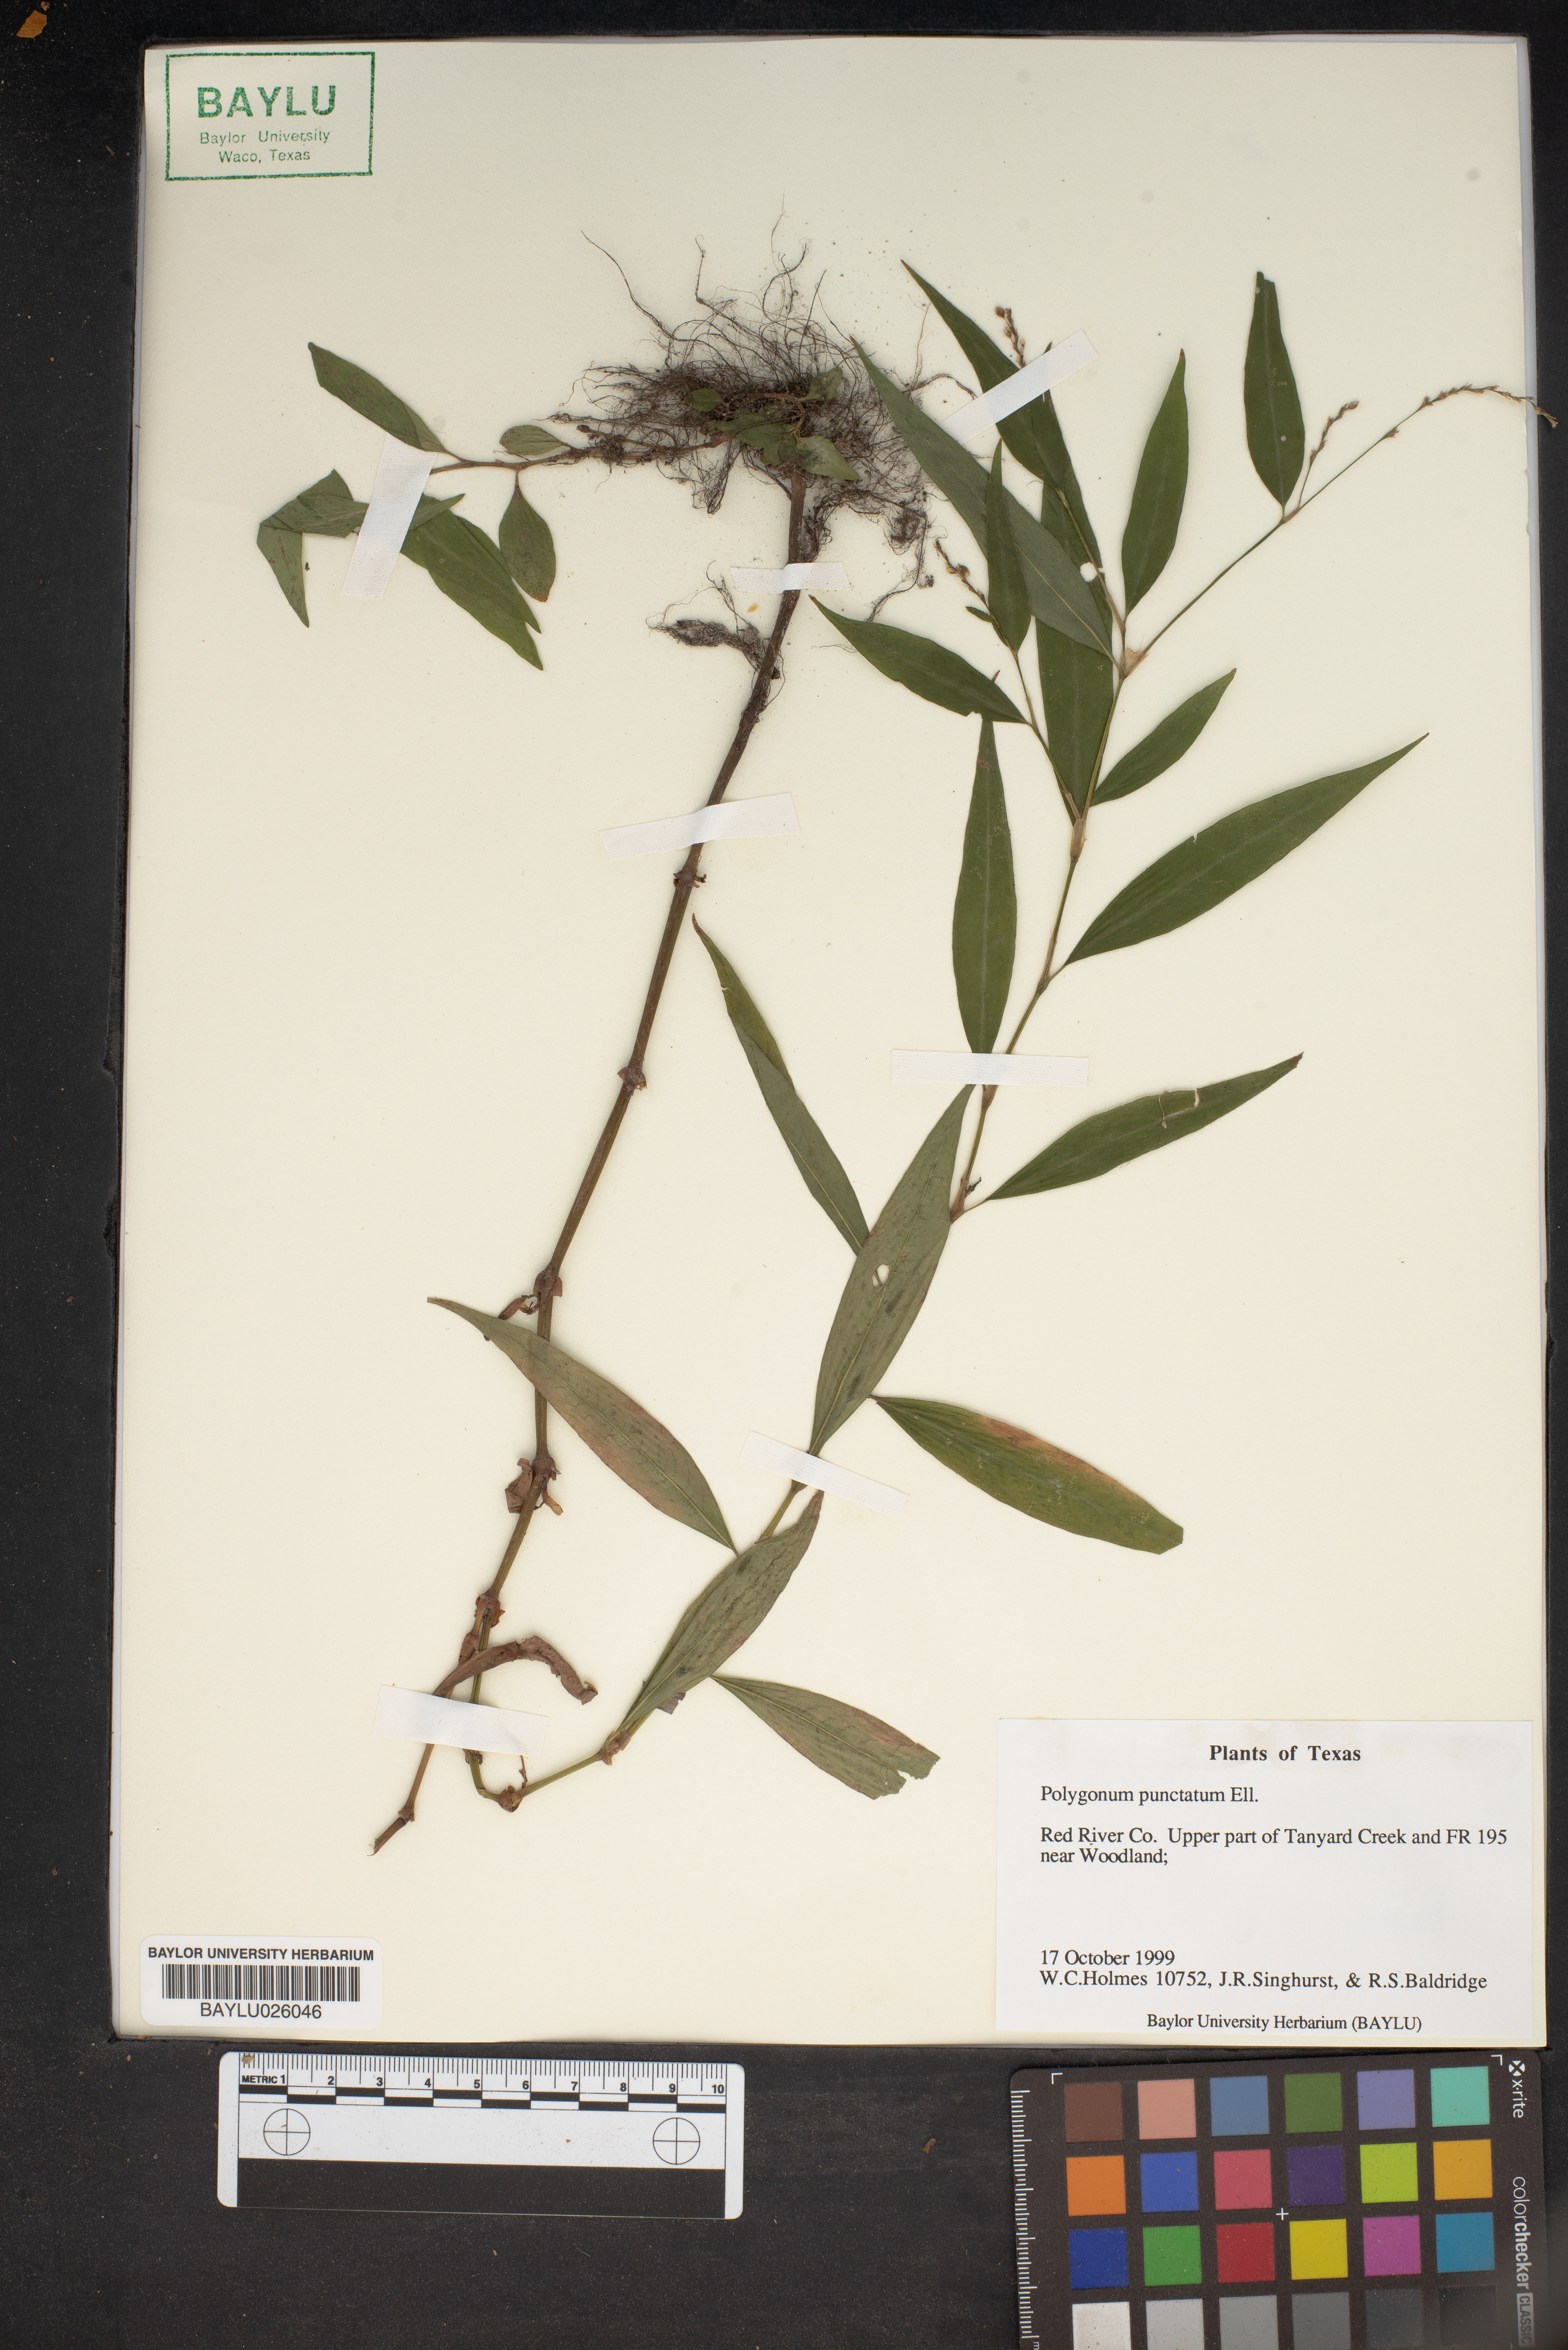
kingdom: Plantae
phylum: Tracheophyta
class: Magnoliopsida
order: Caryophyllales
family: Polygonaceae
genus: Persicaria
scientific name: Persicaria punctata
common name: Dotted smartweed
